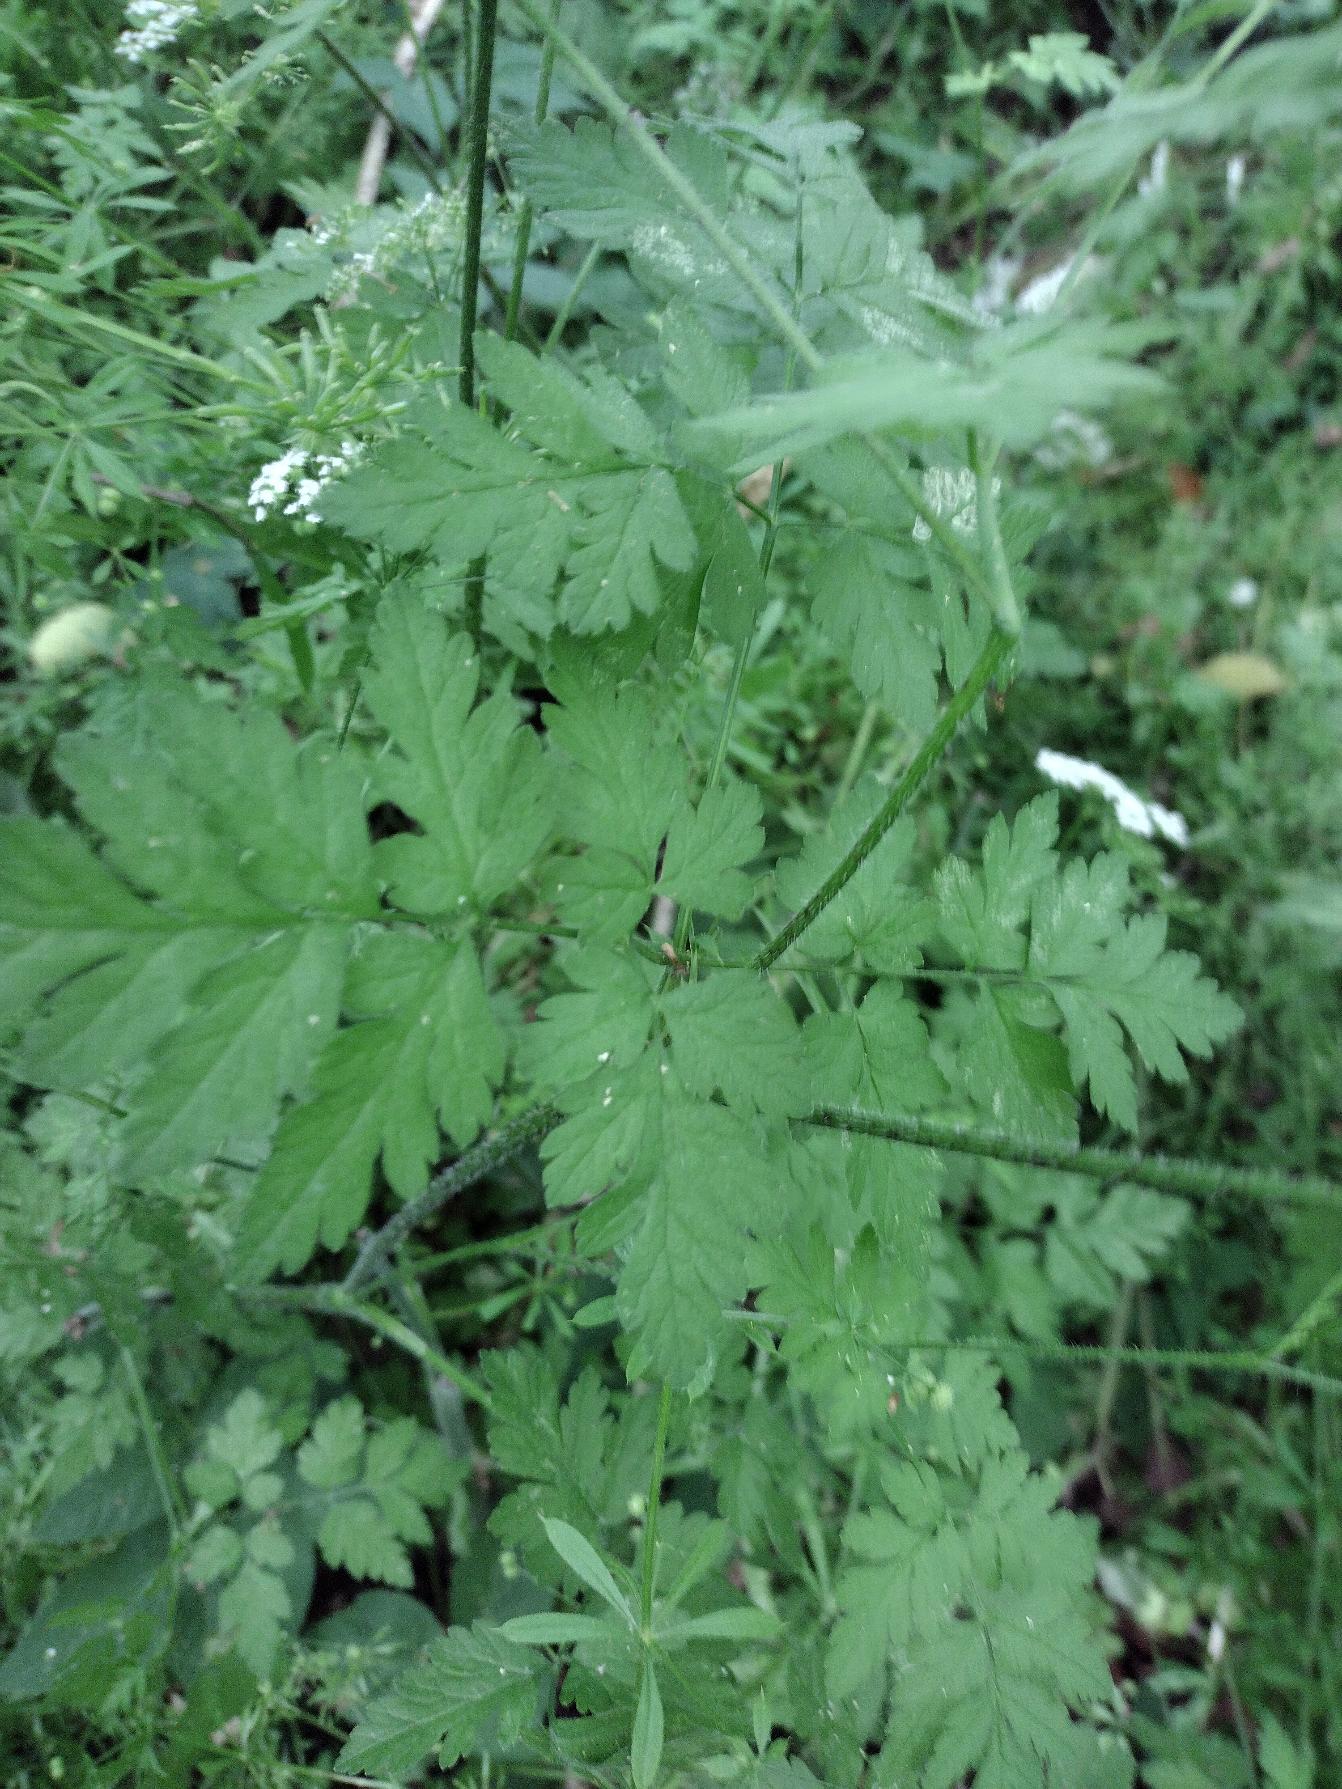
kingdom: Plantae
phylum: Tracheophyta
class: Magnoliopsida
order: Apiales
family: Apiaceae
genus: Chaerophyllum
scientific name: Chaerophyllum temulum
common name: Almindelig hulsvøb
